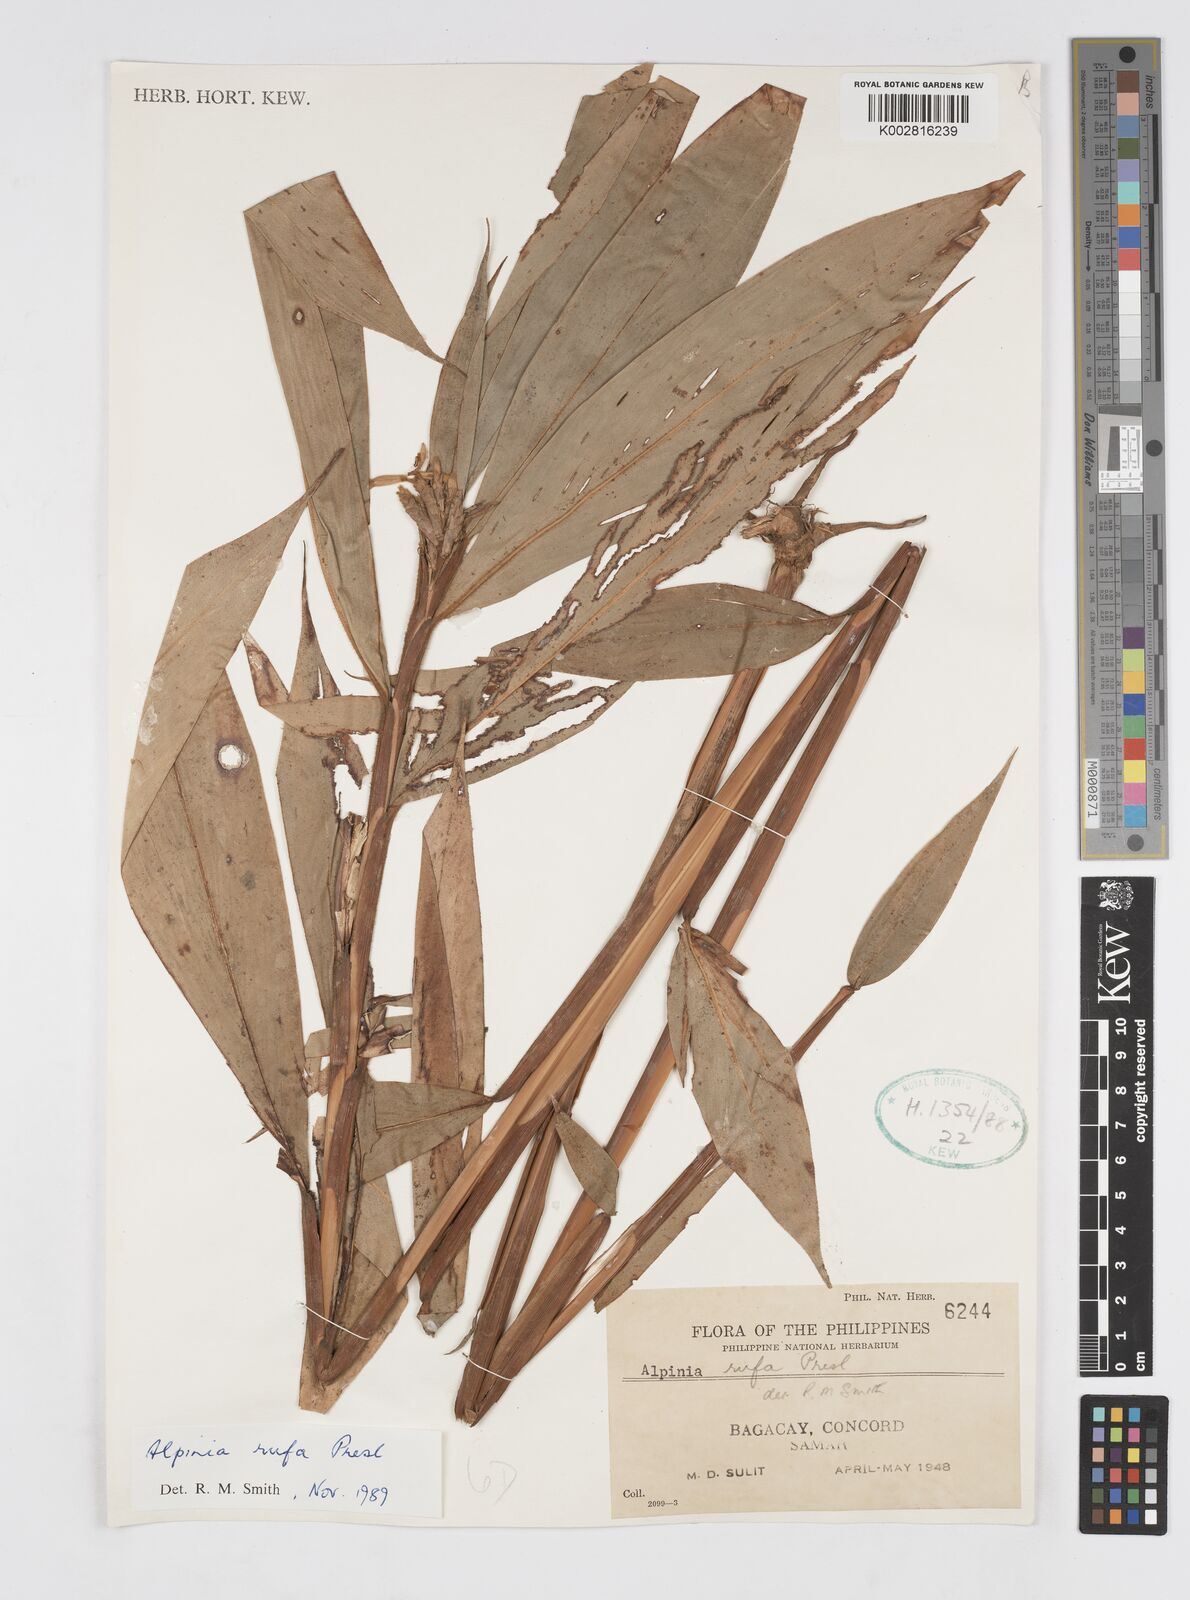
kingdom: Plantae
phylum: Tracheophyta
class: Liliopsida
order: Zingiberales
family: Zingiberaceae
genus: Alpinia
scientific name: Alpinia rufa
